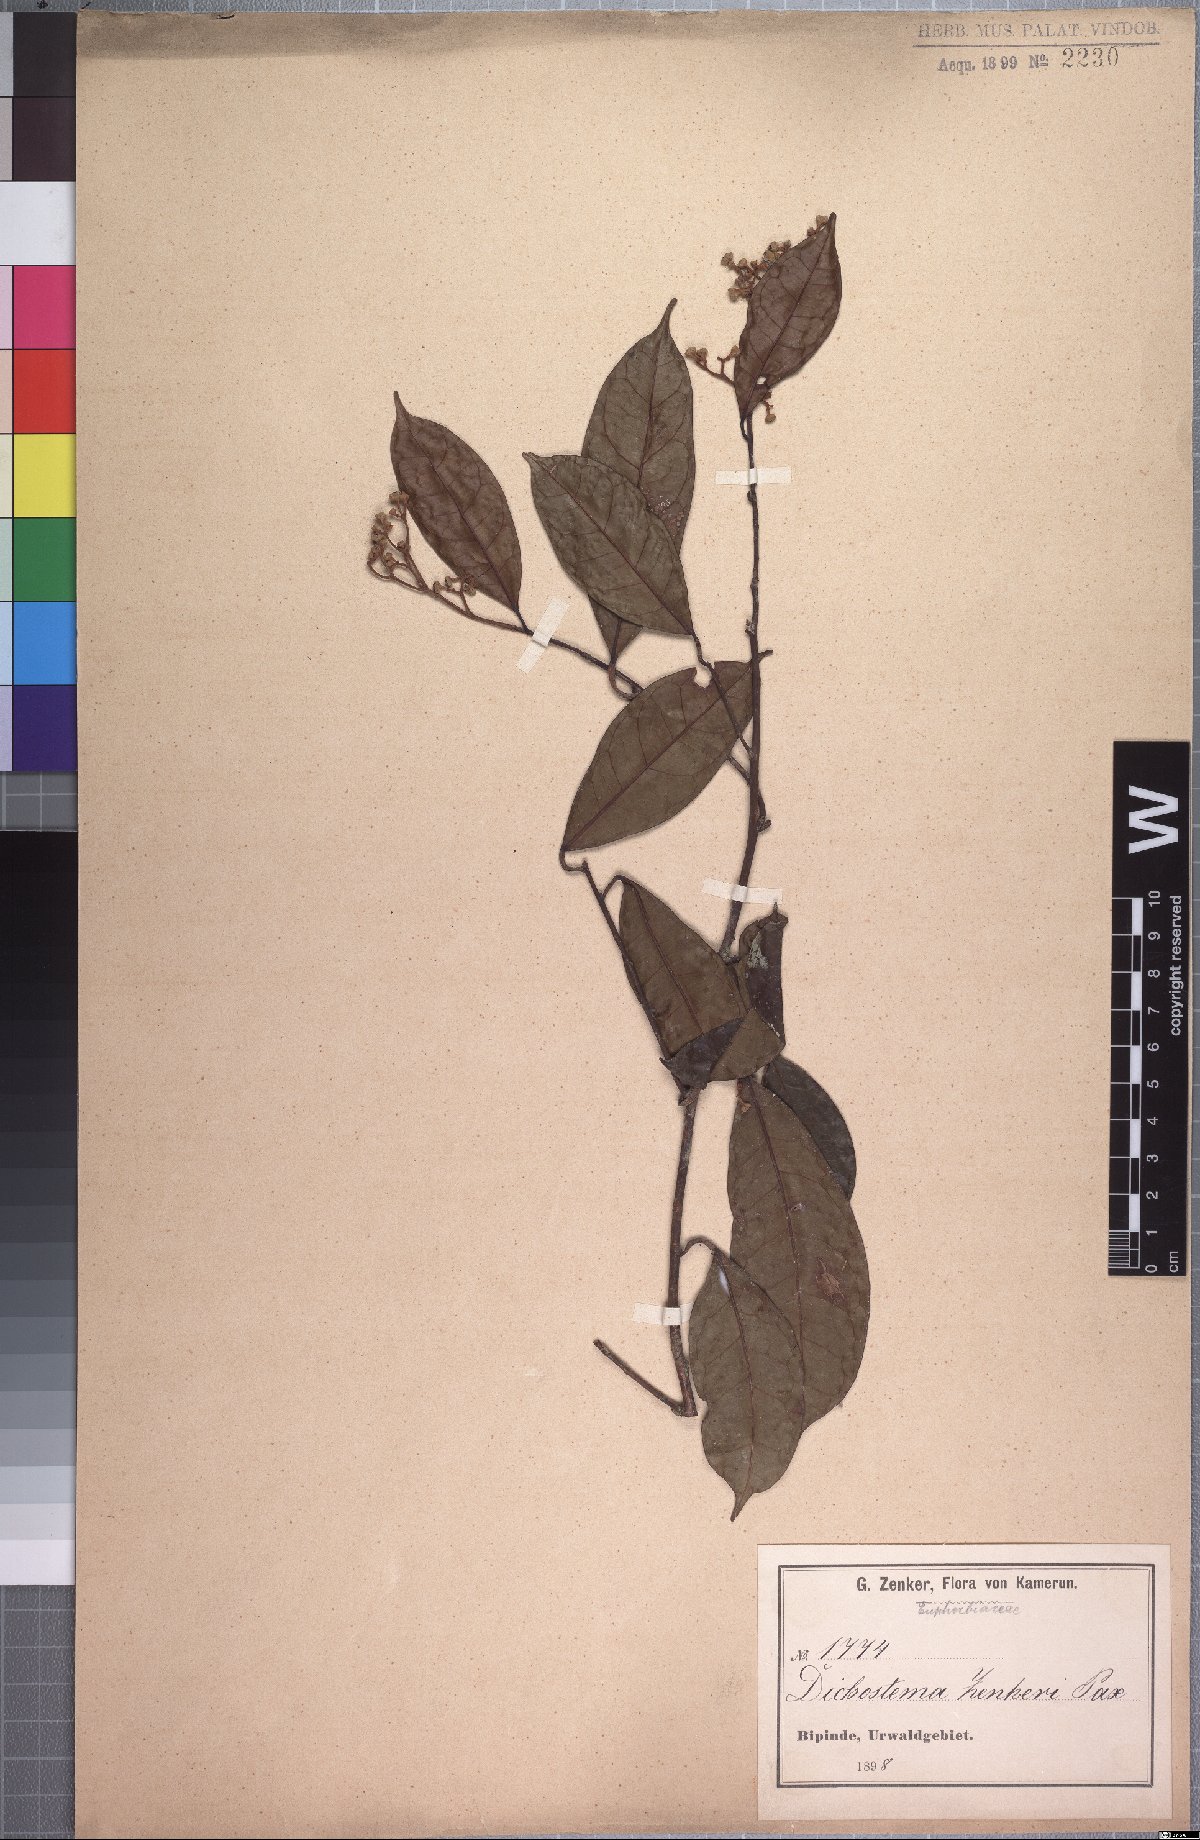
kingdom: Plantae
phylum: Tracheophyta
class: Magnoliopsida
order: Malpighiales
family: Euphorbiaceae
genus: Dichostemma
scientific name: Dichostemma zenkeri
